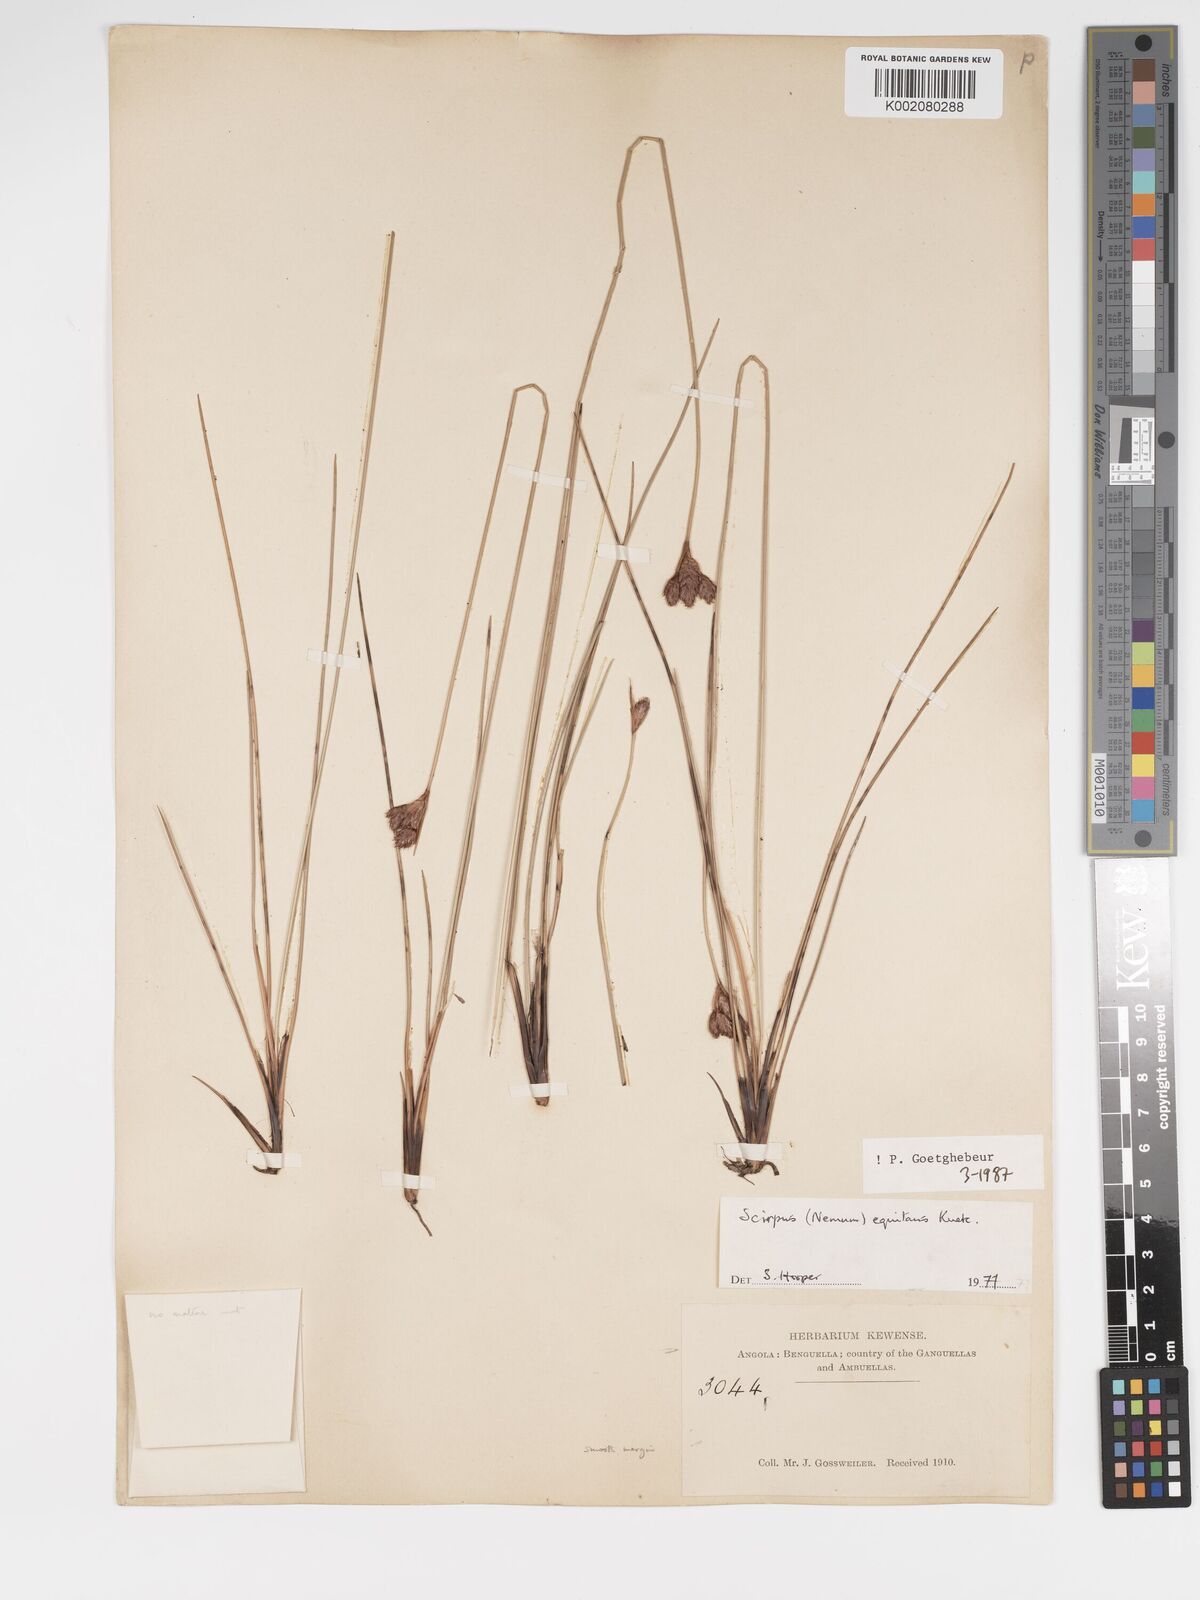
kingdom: Plantae
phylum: Tracheophyta
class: Liliopsida
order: Poales
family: Cyperaceae
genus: Bulbostylis
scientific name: Bulbostylis equitans
